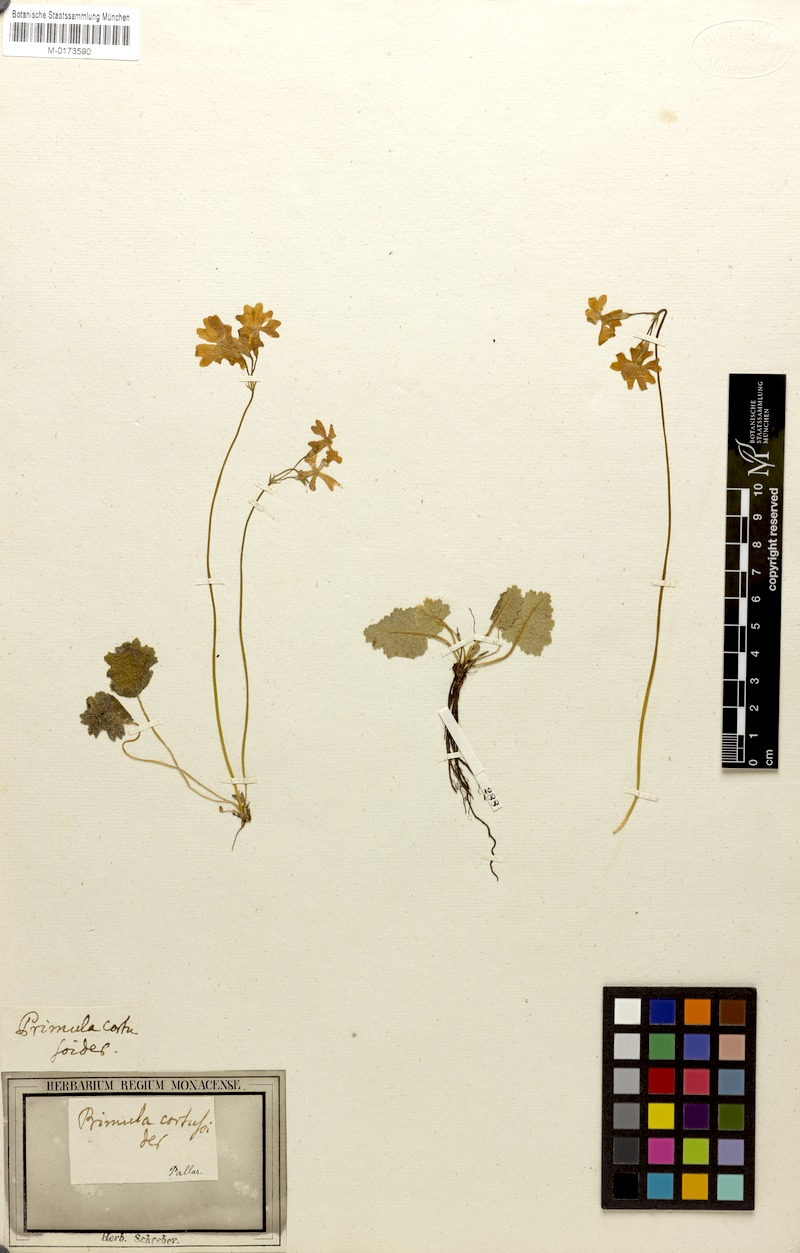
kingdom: Plantae
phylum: Tracheophyta
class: Magnoliopsida
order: Ericales
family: Primulaceae
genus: Primula
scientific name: Primula cortusoides
